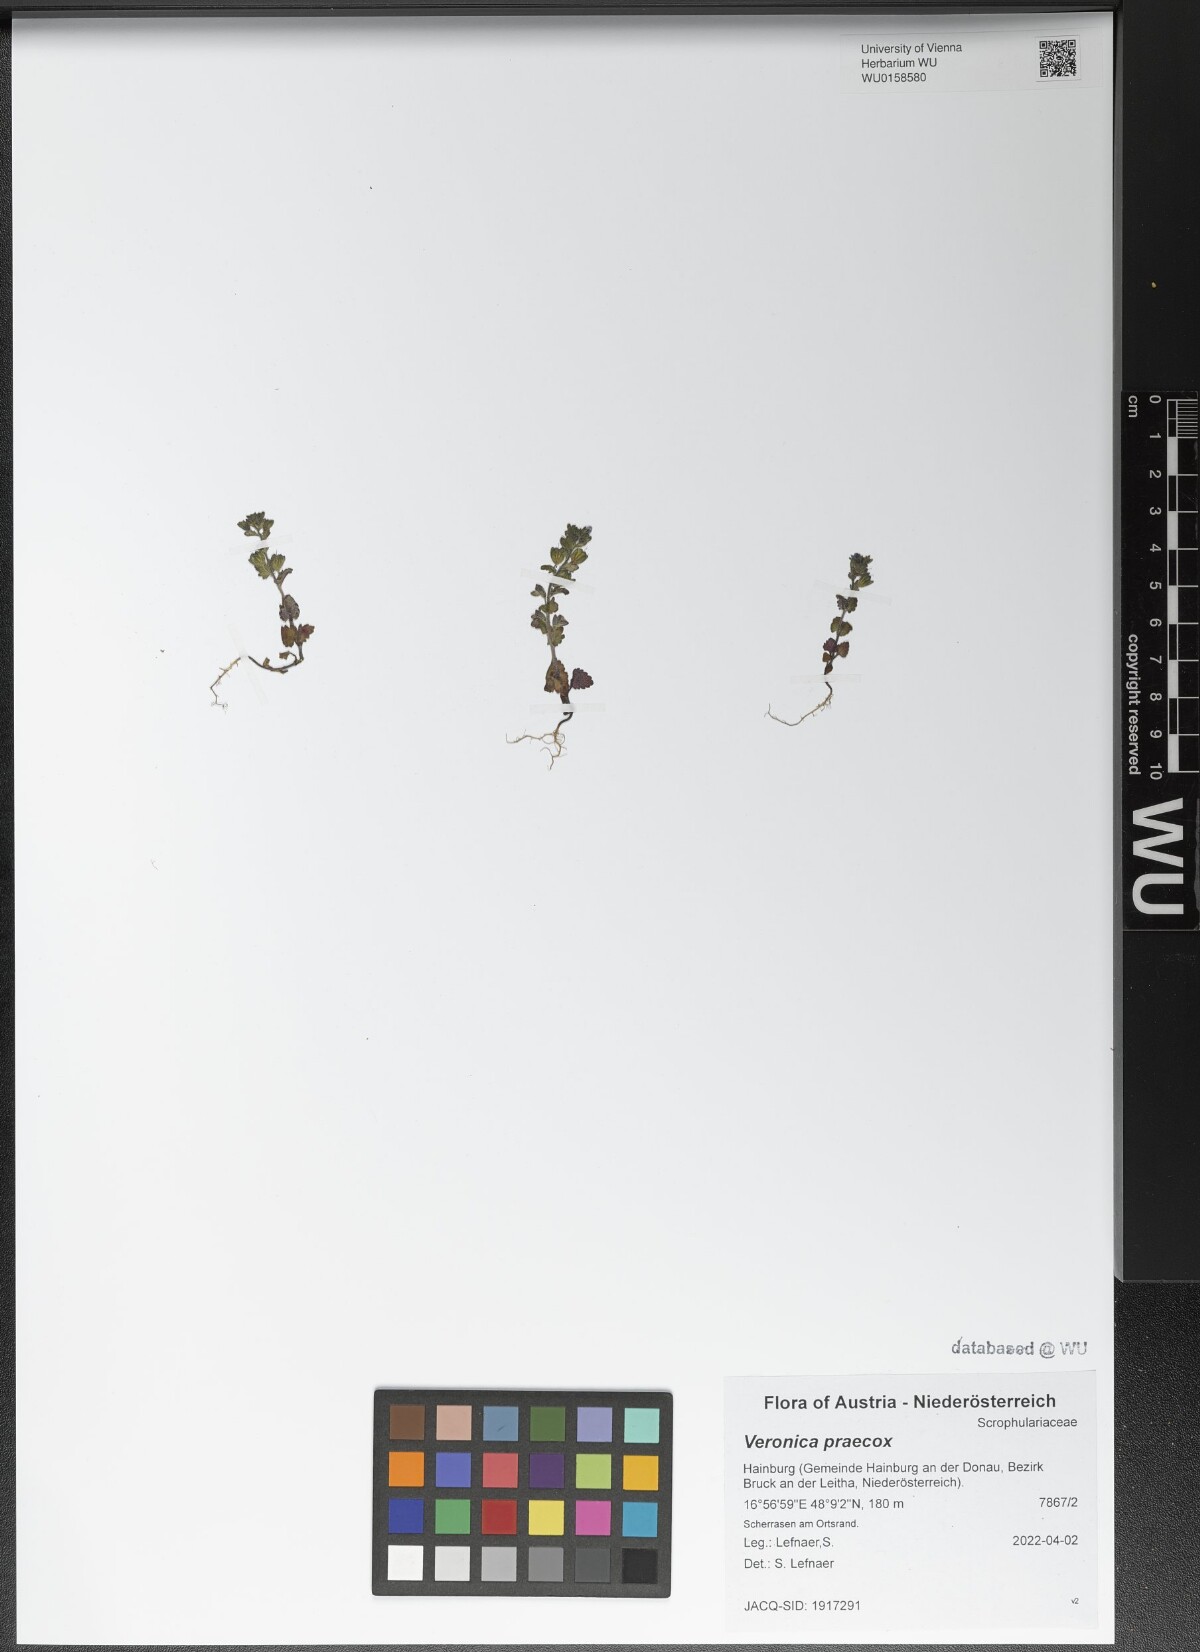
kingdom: Plantae
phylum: Tracheophyta
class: Magnoliopsida
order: Lamiales
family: Plantaginaceae
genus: Veronica
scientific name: Veronica praecox
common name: Breckland speedwell
